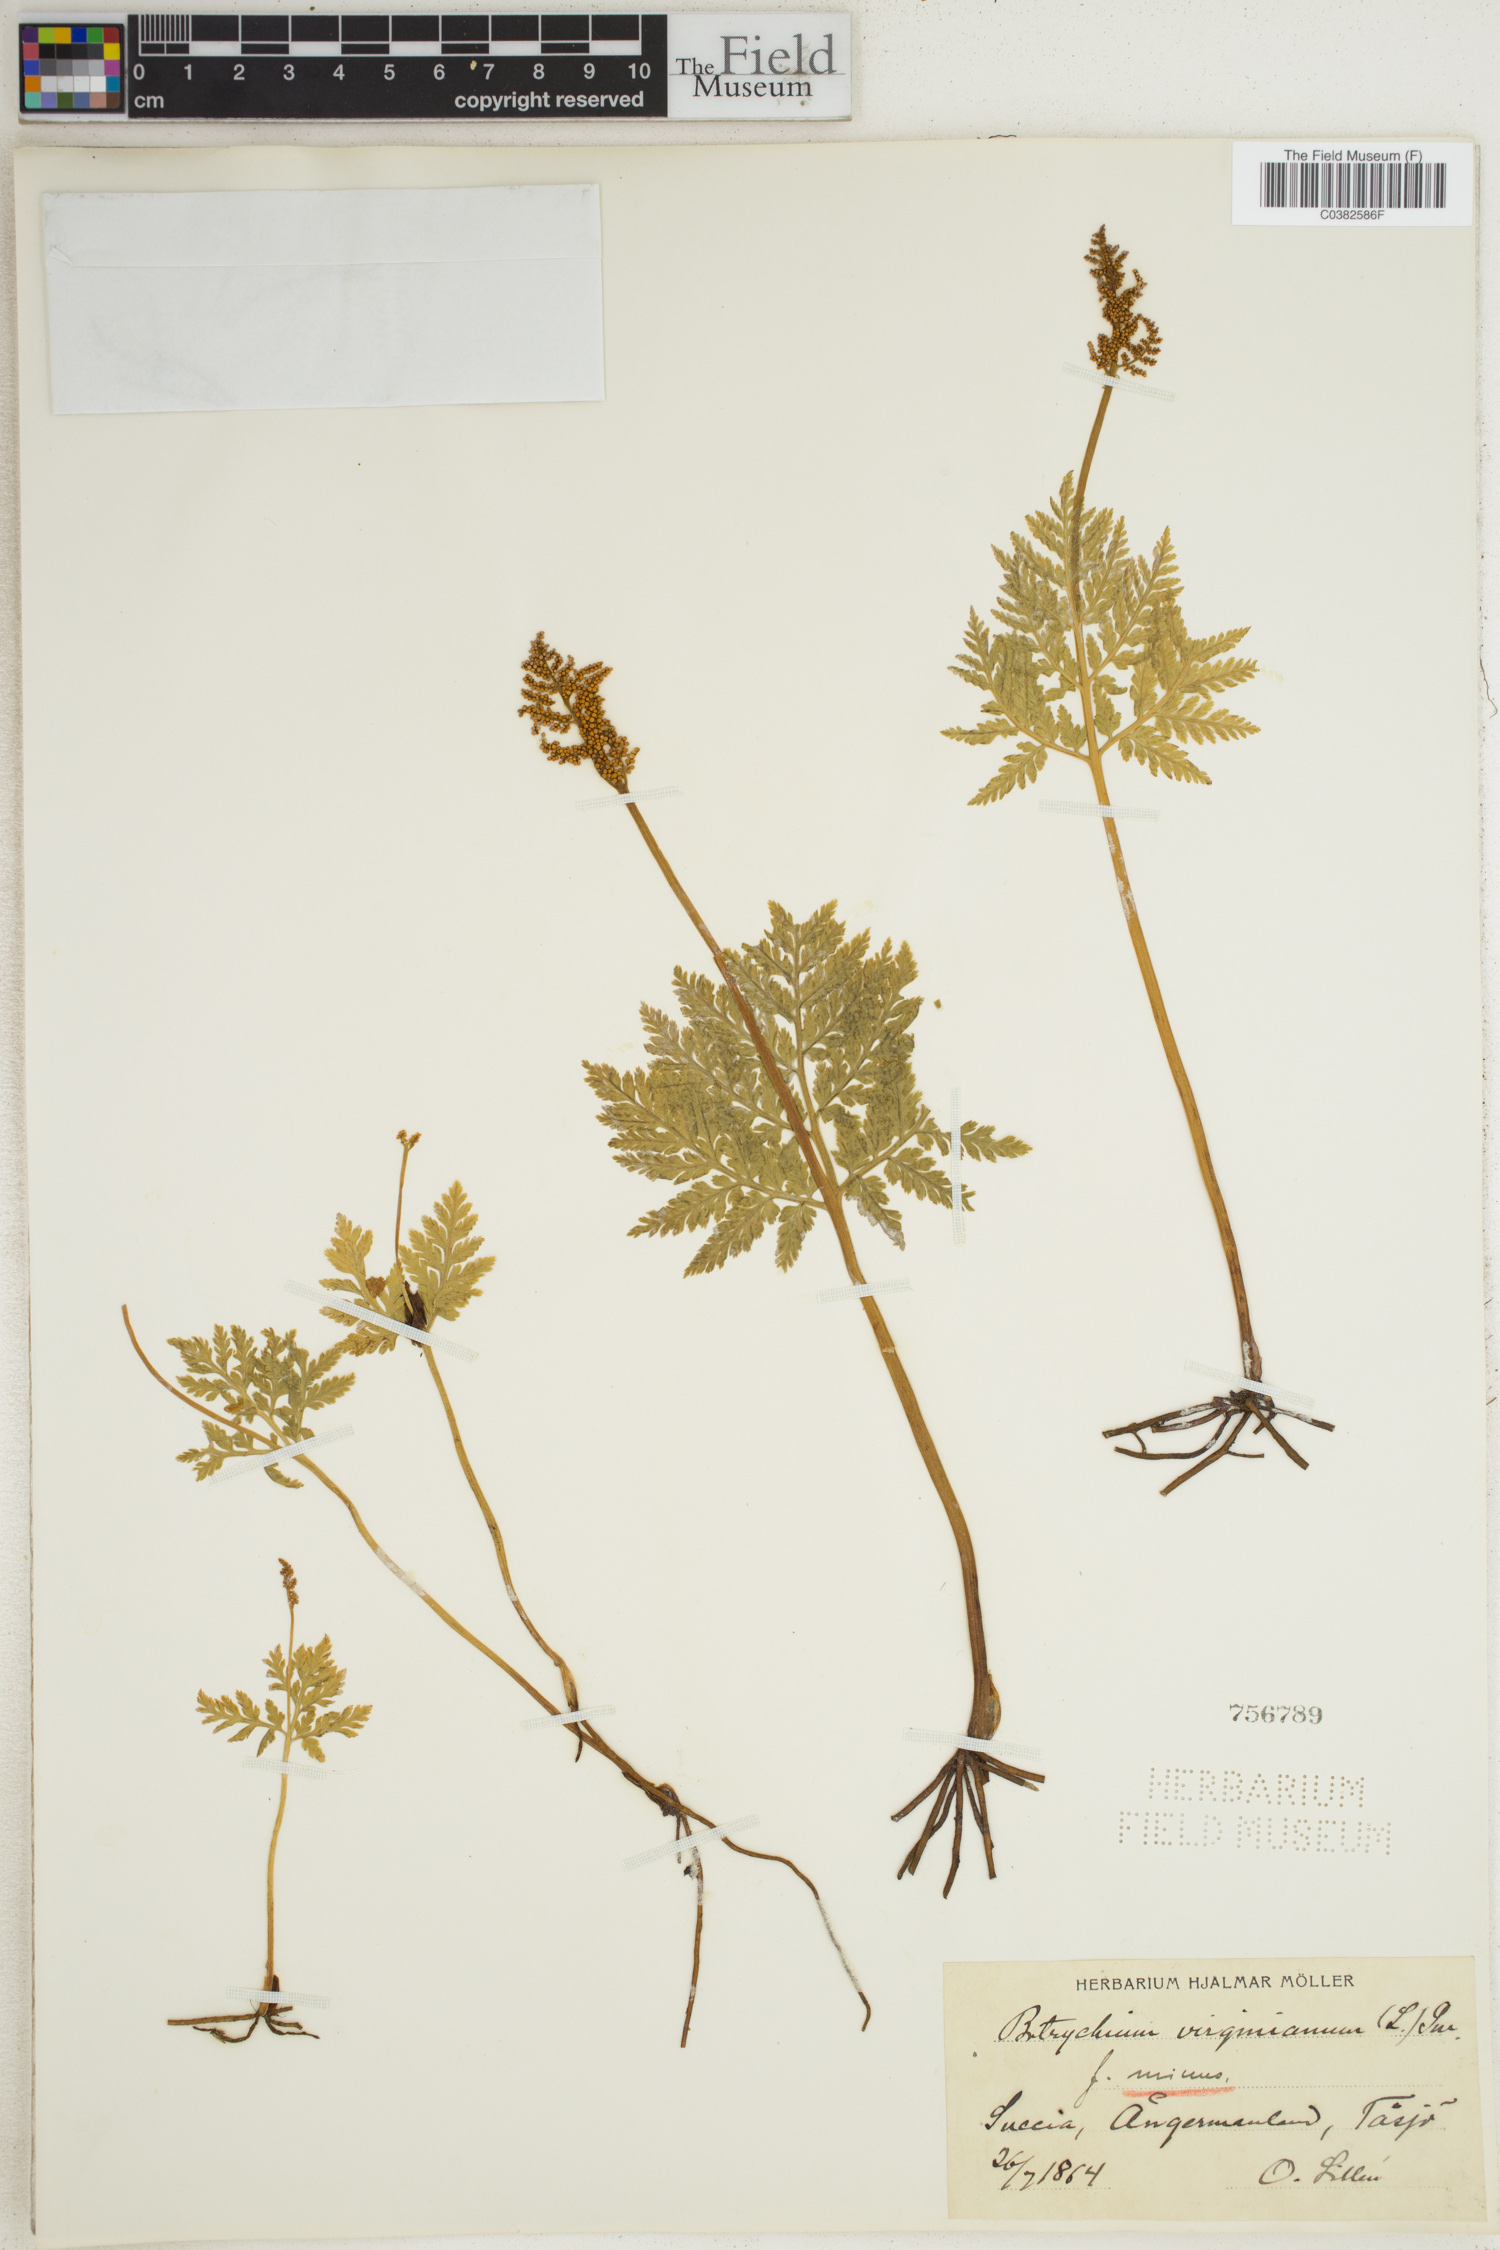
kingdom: Plantae
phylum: Tracheophyta
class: Polypodiopsida
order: Ophioglossales
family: Ophioglossaceae
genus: Botrypus
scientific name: Botrypus virginianus
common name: Common grapefern
